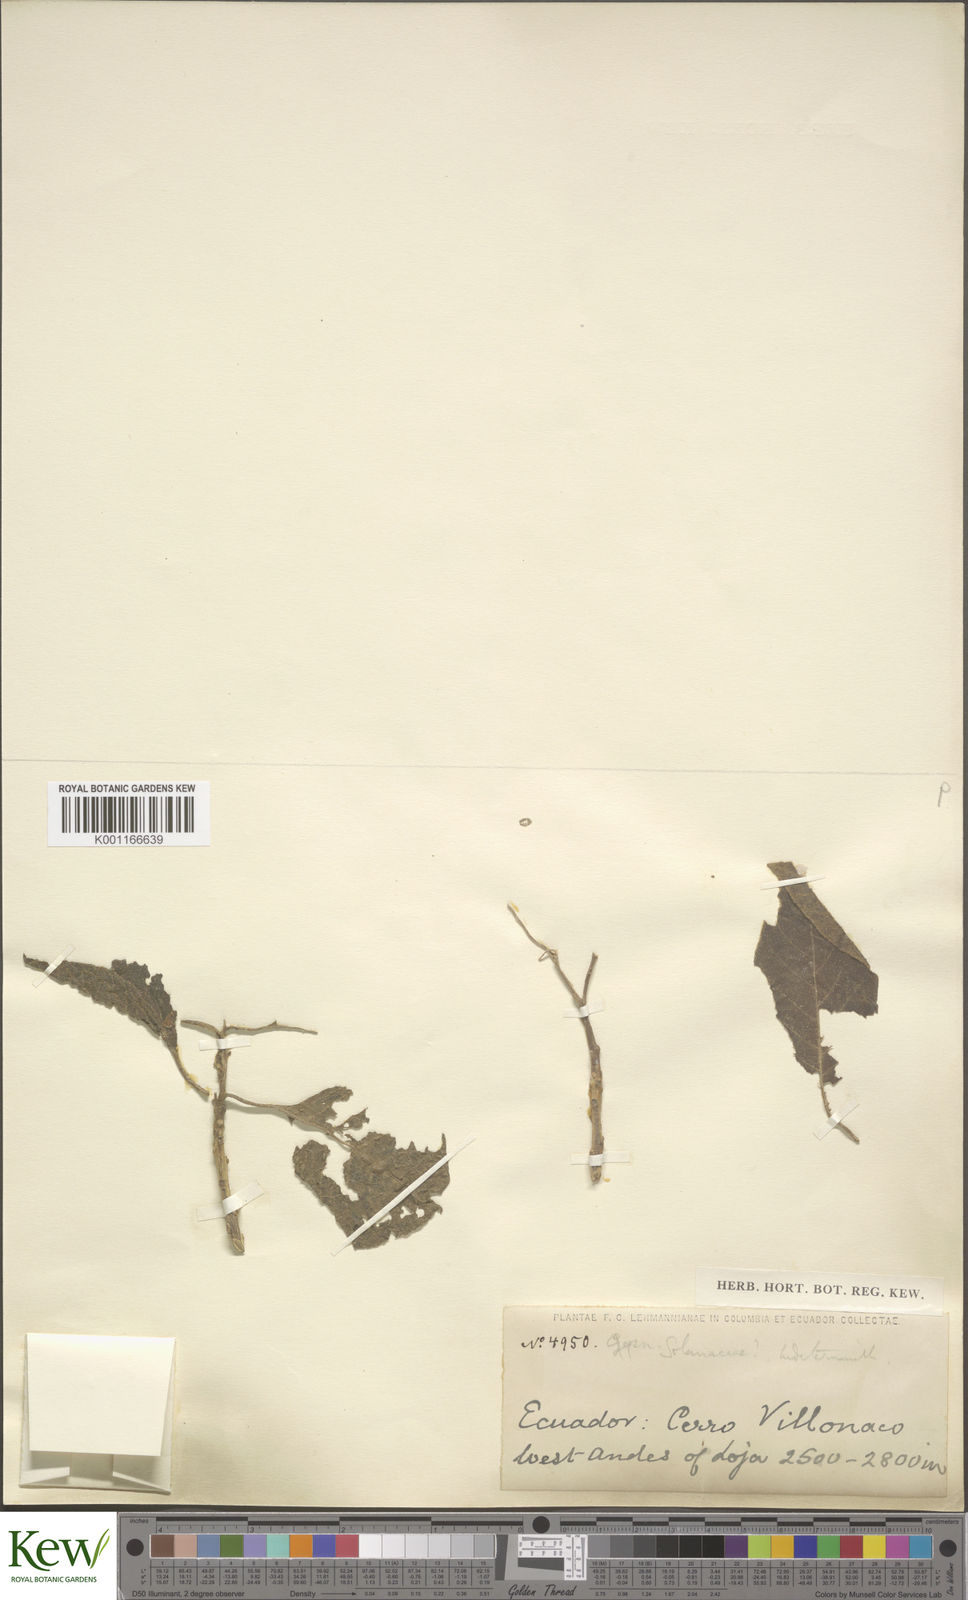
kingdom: Plantae
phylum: Tracheophyta
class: Magnoliopsida
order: Solanales
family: Solanaceae
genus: Solanum
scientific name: Solanum
